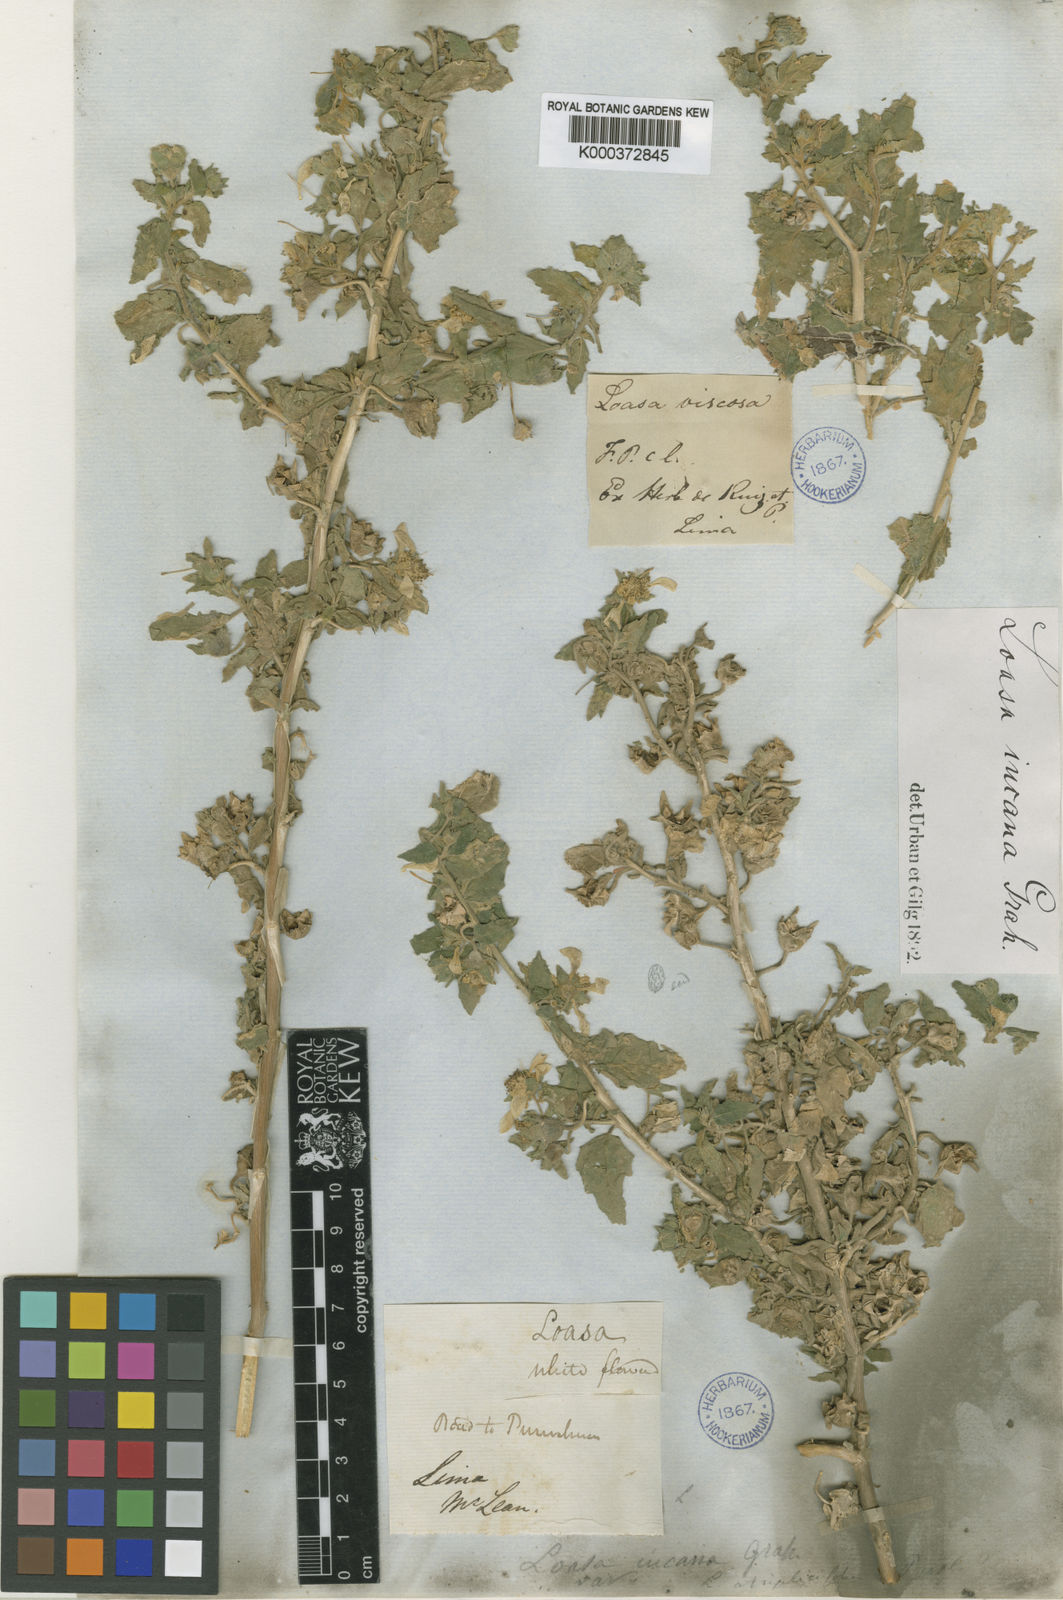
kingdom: Plantae
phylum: Tracheophyta
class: Magnoliopsida
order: Cornales
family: Loasaceae
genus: Presliophytum
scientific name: Presliophytum incanum
